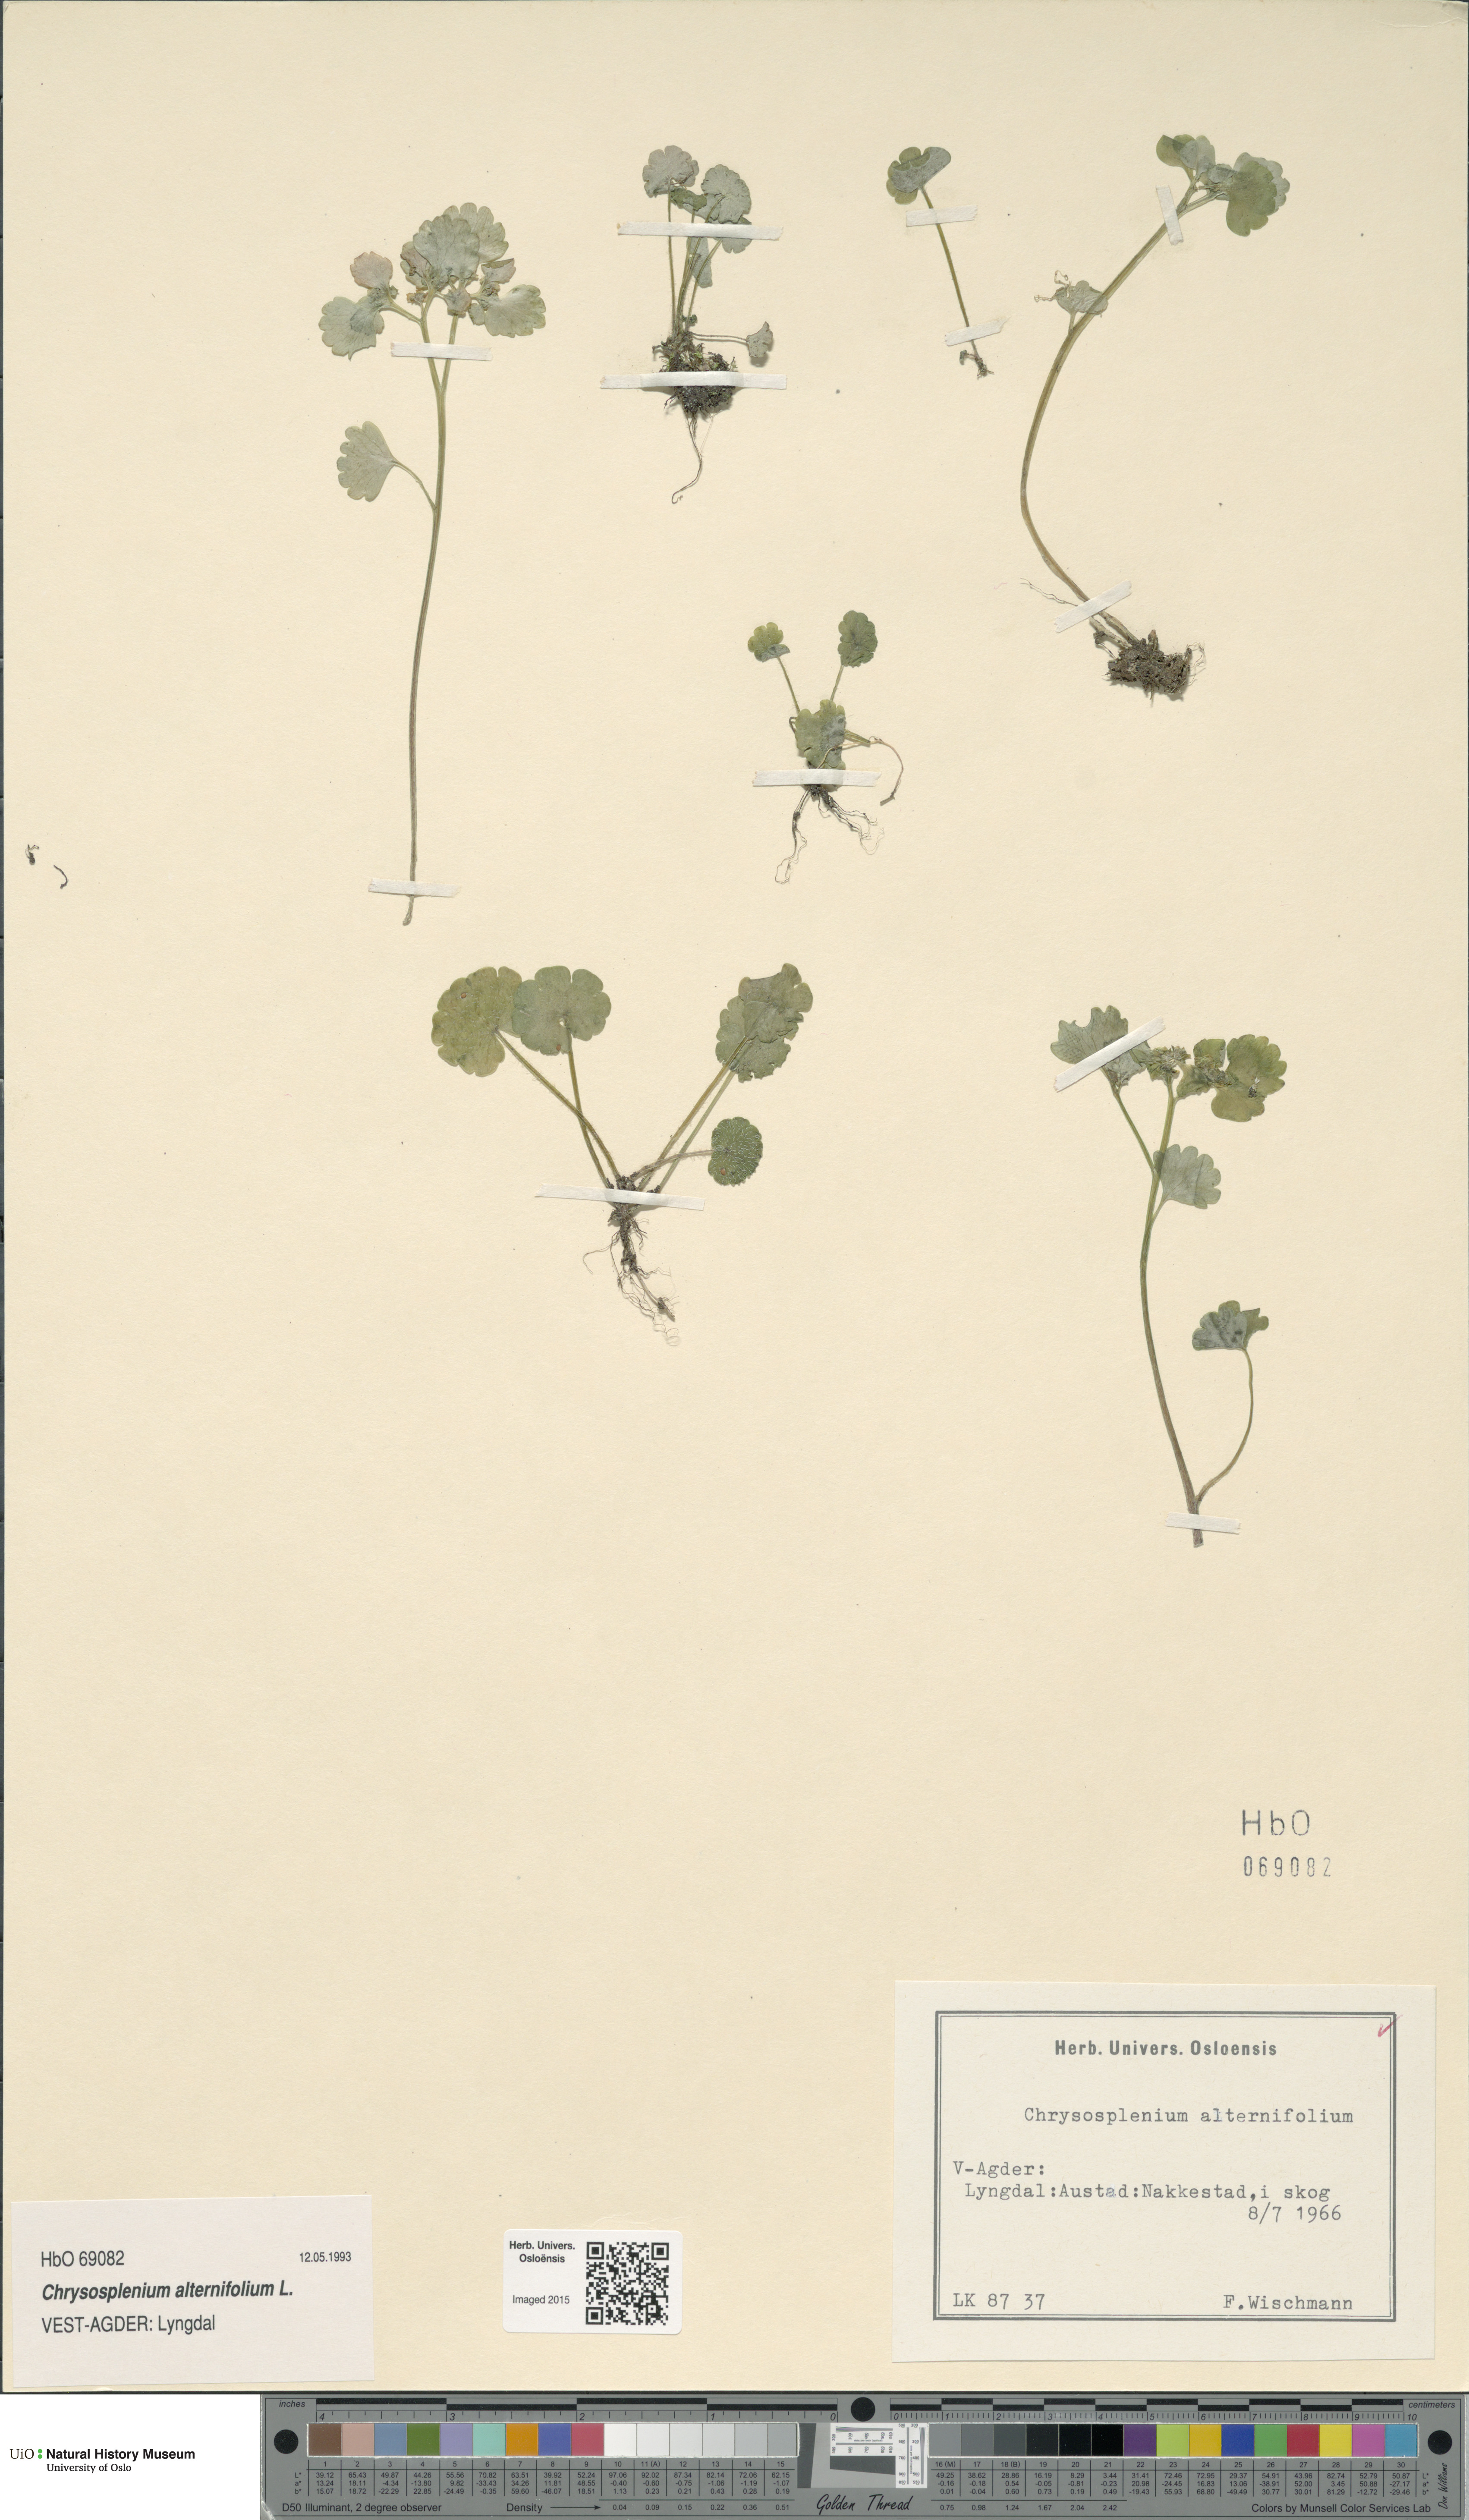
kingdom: Plantae
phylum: Tracheophyta
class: Magnoliopsida
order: Saxifragales
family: Saxifragaceae
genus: Chrysosplenium
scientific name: Chrysosplenium alternifolium
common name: Alternate-leaved golden-saxifrage
